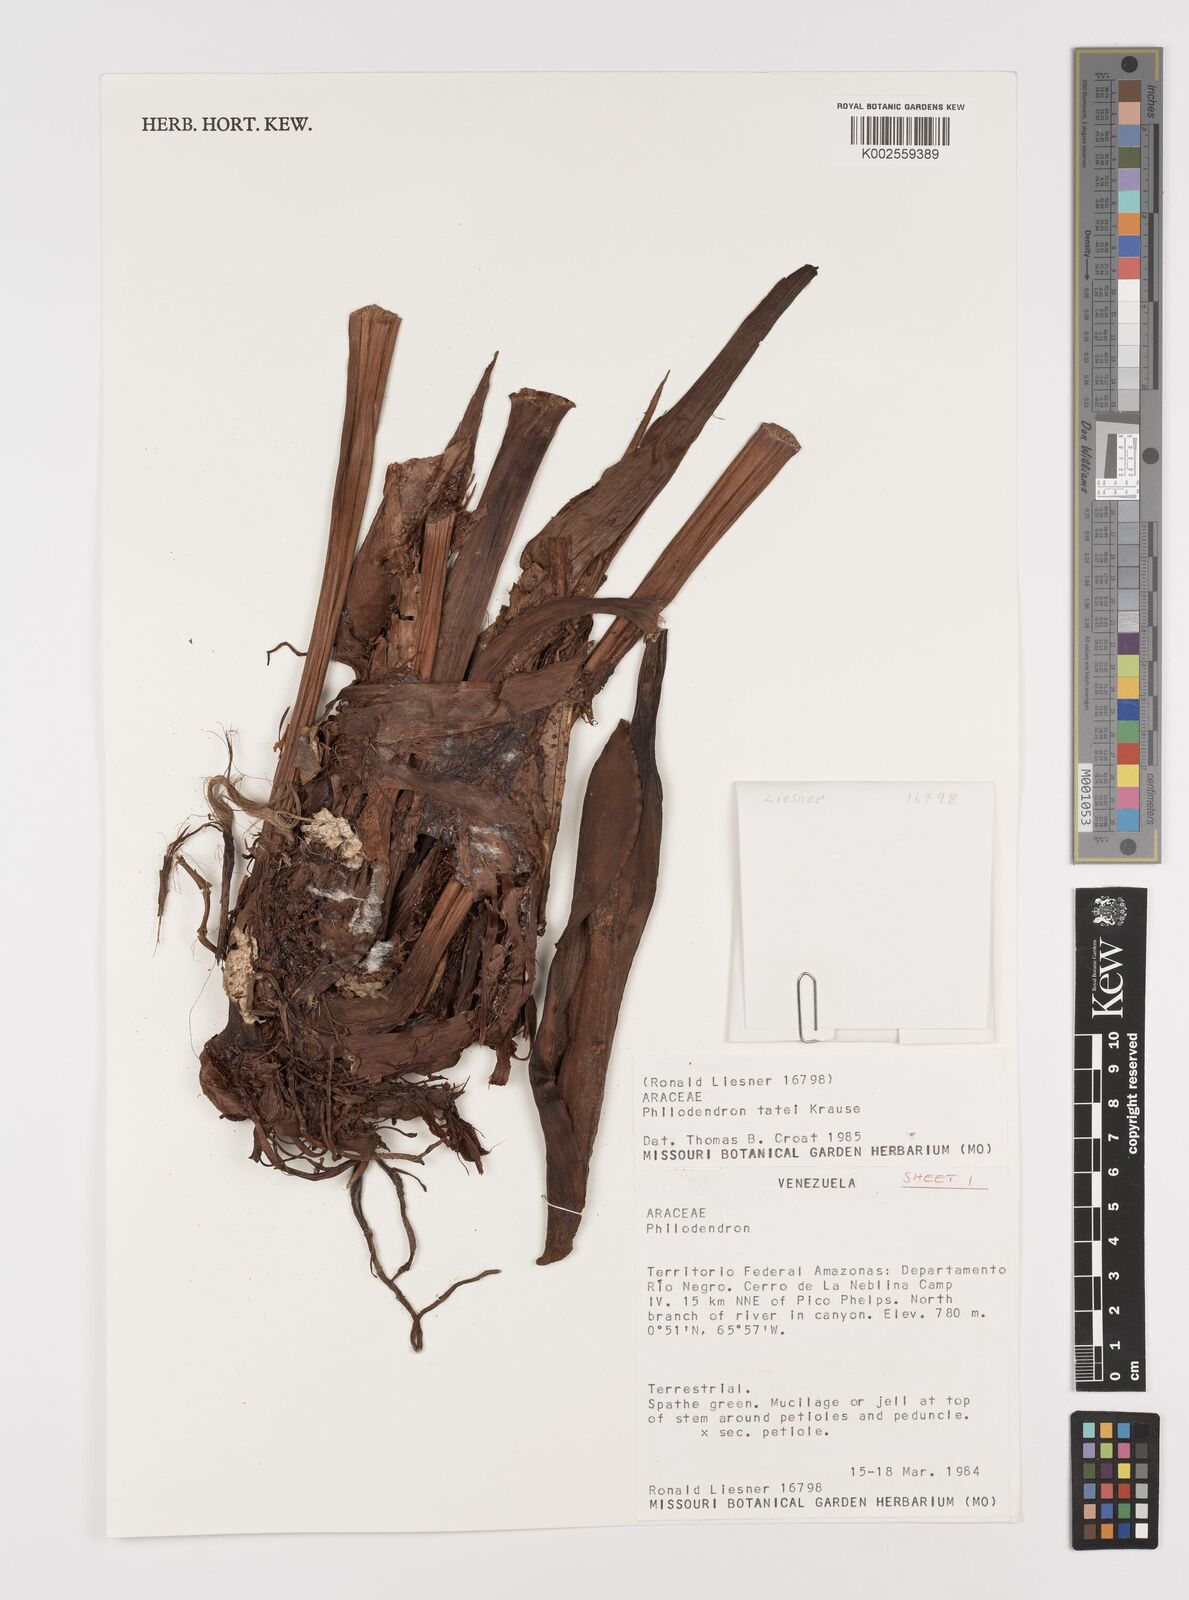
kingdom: Plantae
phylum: Tracheophyta
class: Liliopsida
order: Alismatales
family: Araceae
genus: Philodendron
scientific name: Philodendron tatei
